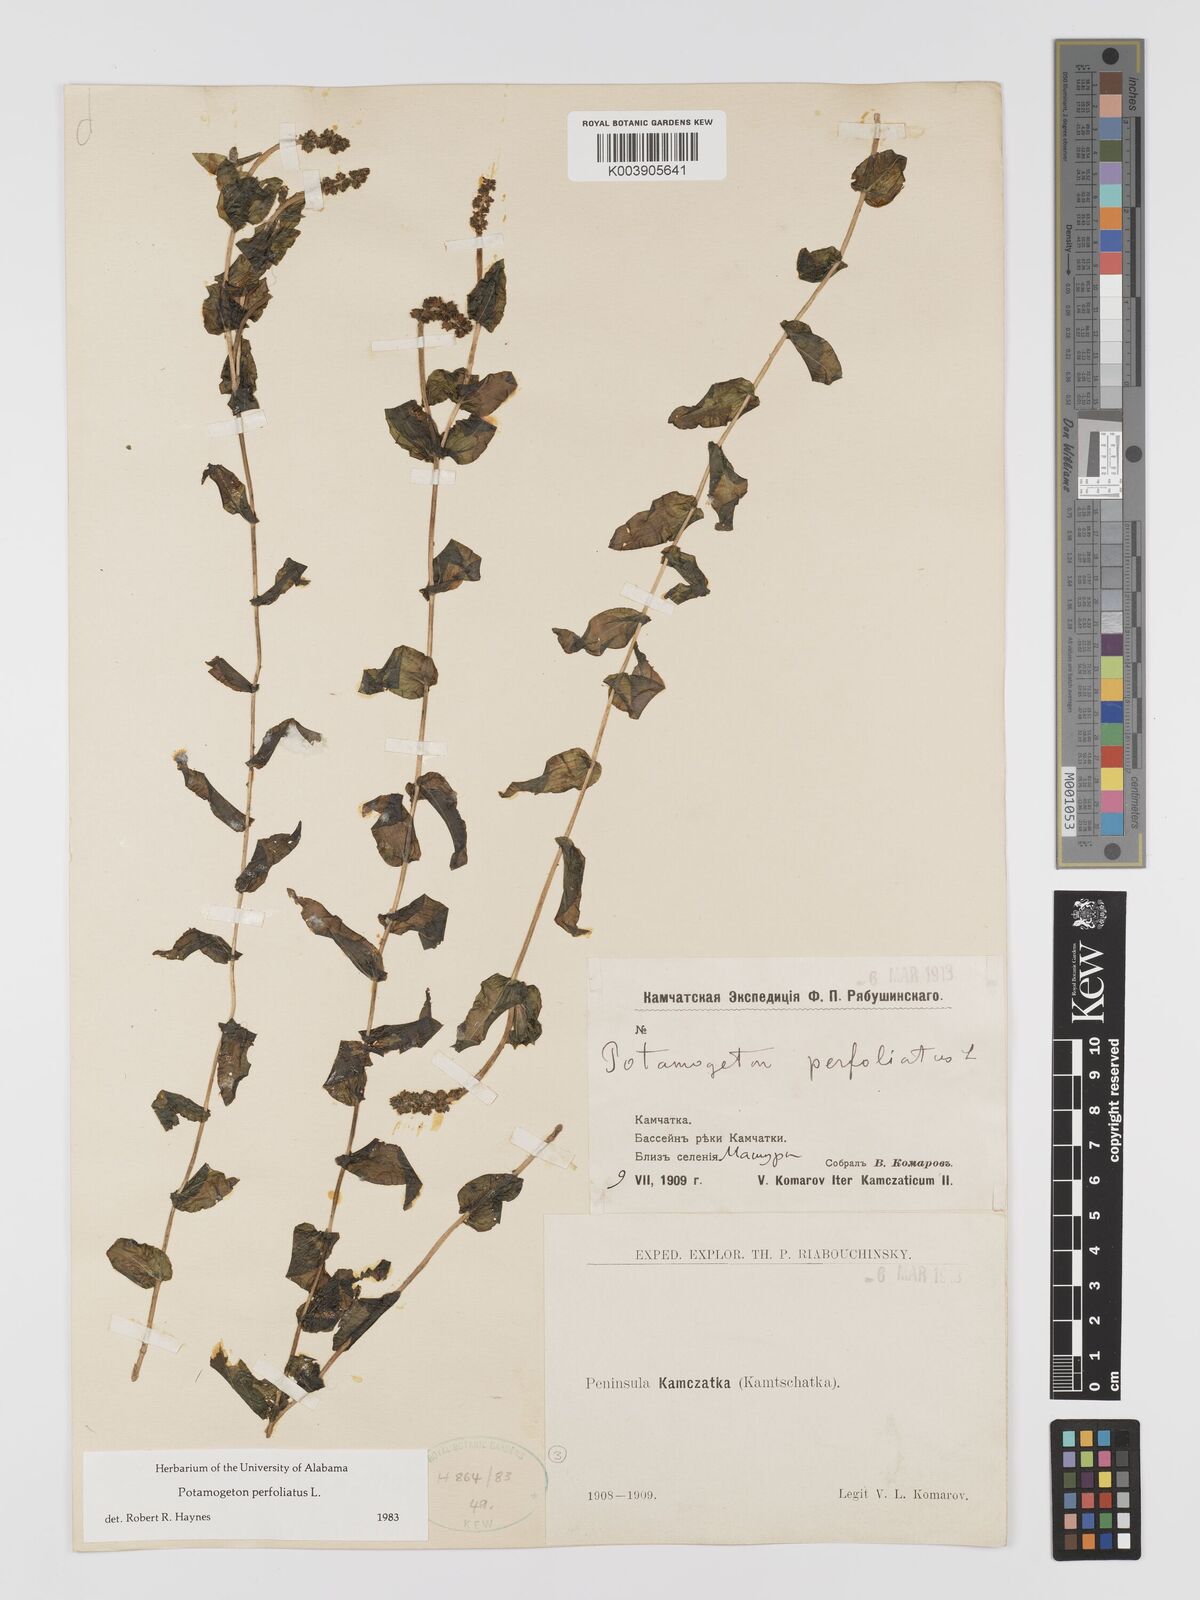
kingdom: Plantae
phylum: Tracheophyta
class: Liliopsida
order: Alismatales
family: Potamogetonaceae
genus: Potamogeton
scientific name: Potamogeton perfoliatus
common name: Perfoliate pondweed
